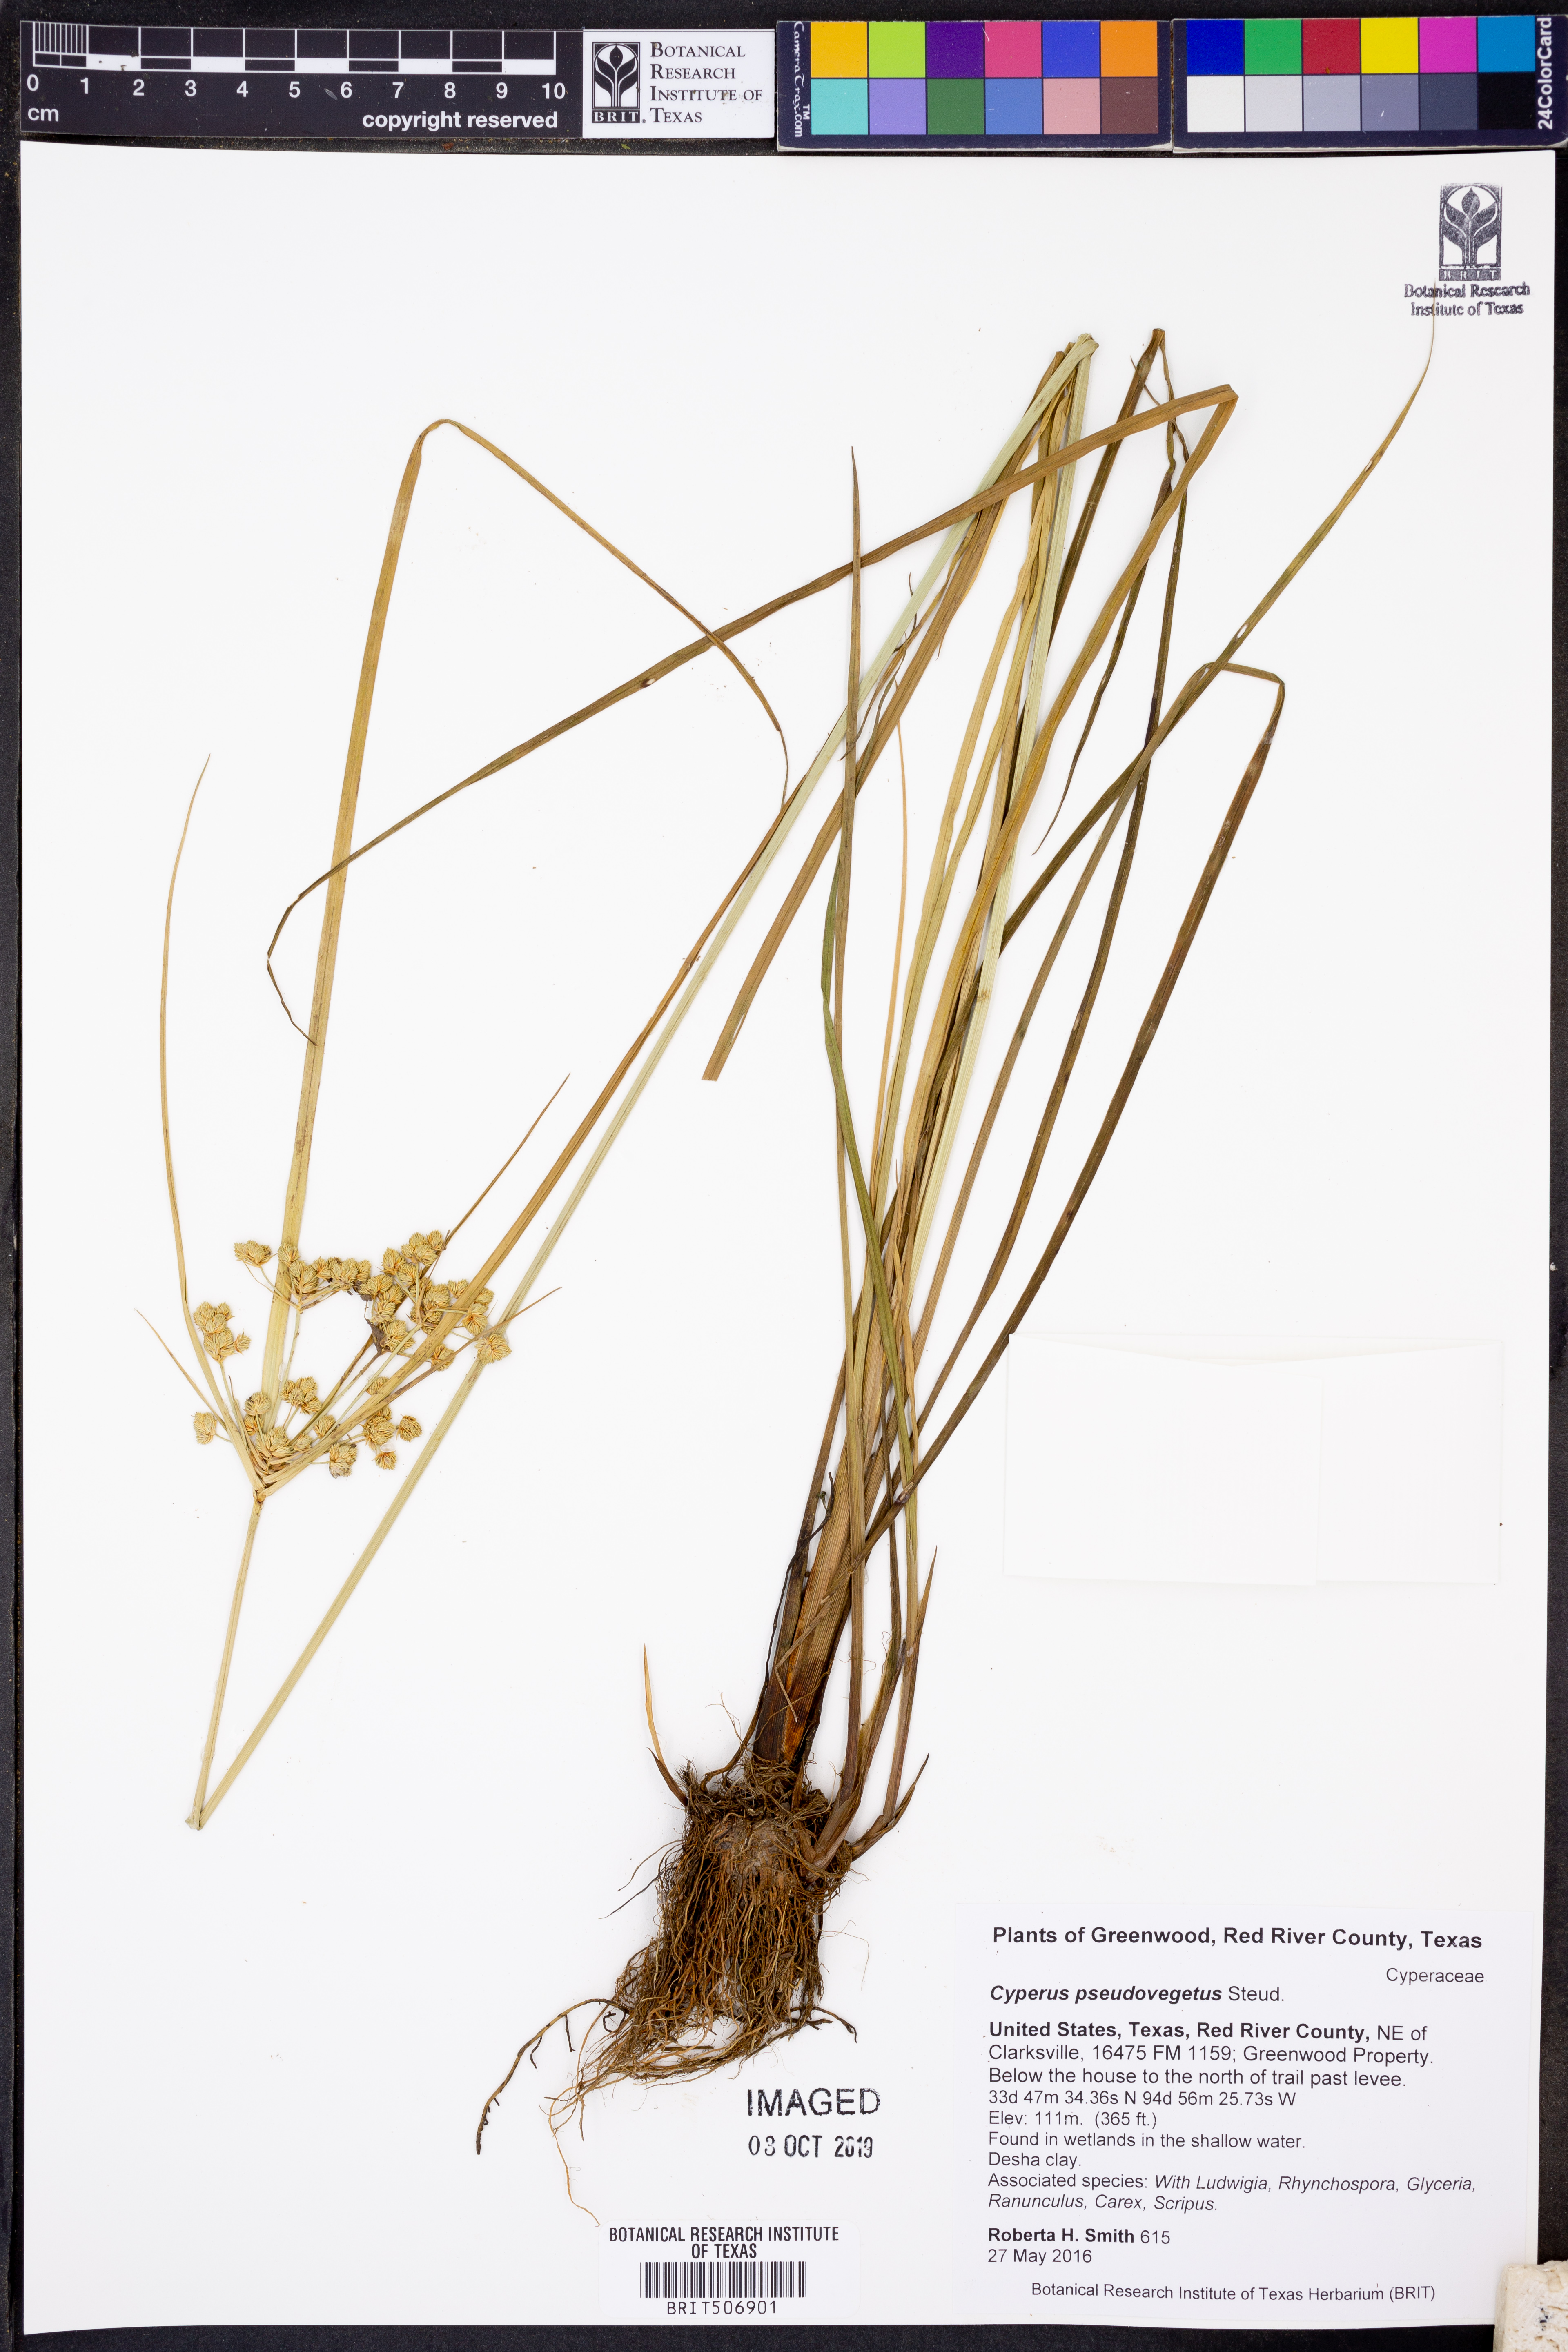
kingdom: Plantae
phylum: Tracheophyta
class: Liliopsida
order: Poales
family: Cyperaceae
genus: Cyperus
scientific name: Cyperus pseudovegetus
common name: Marsh flat sedge
